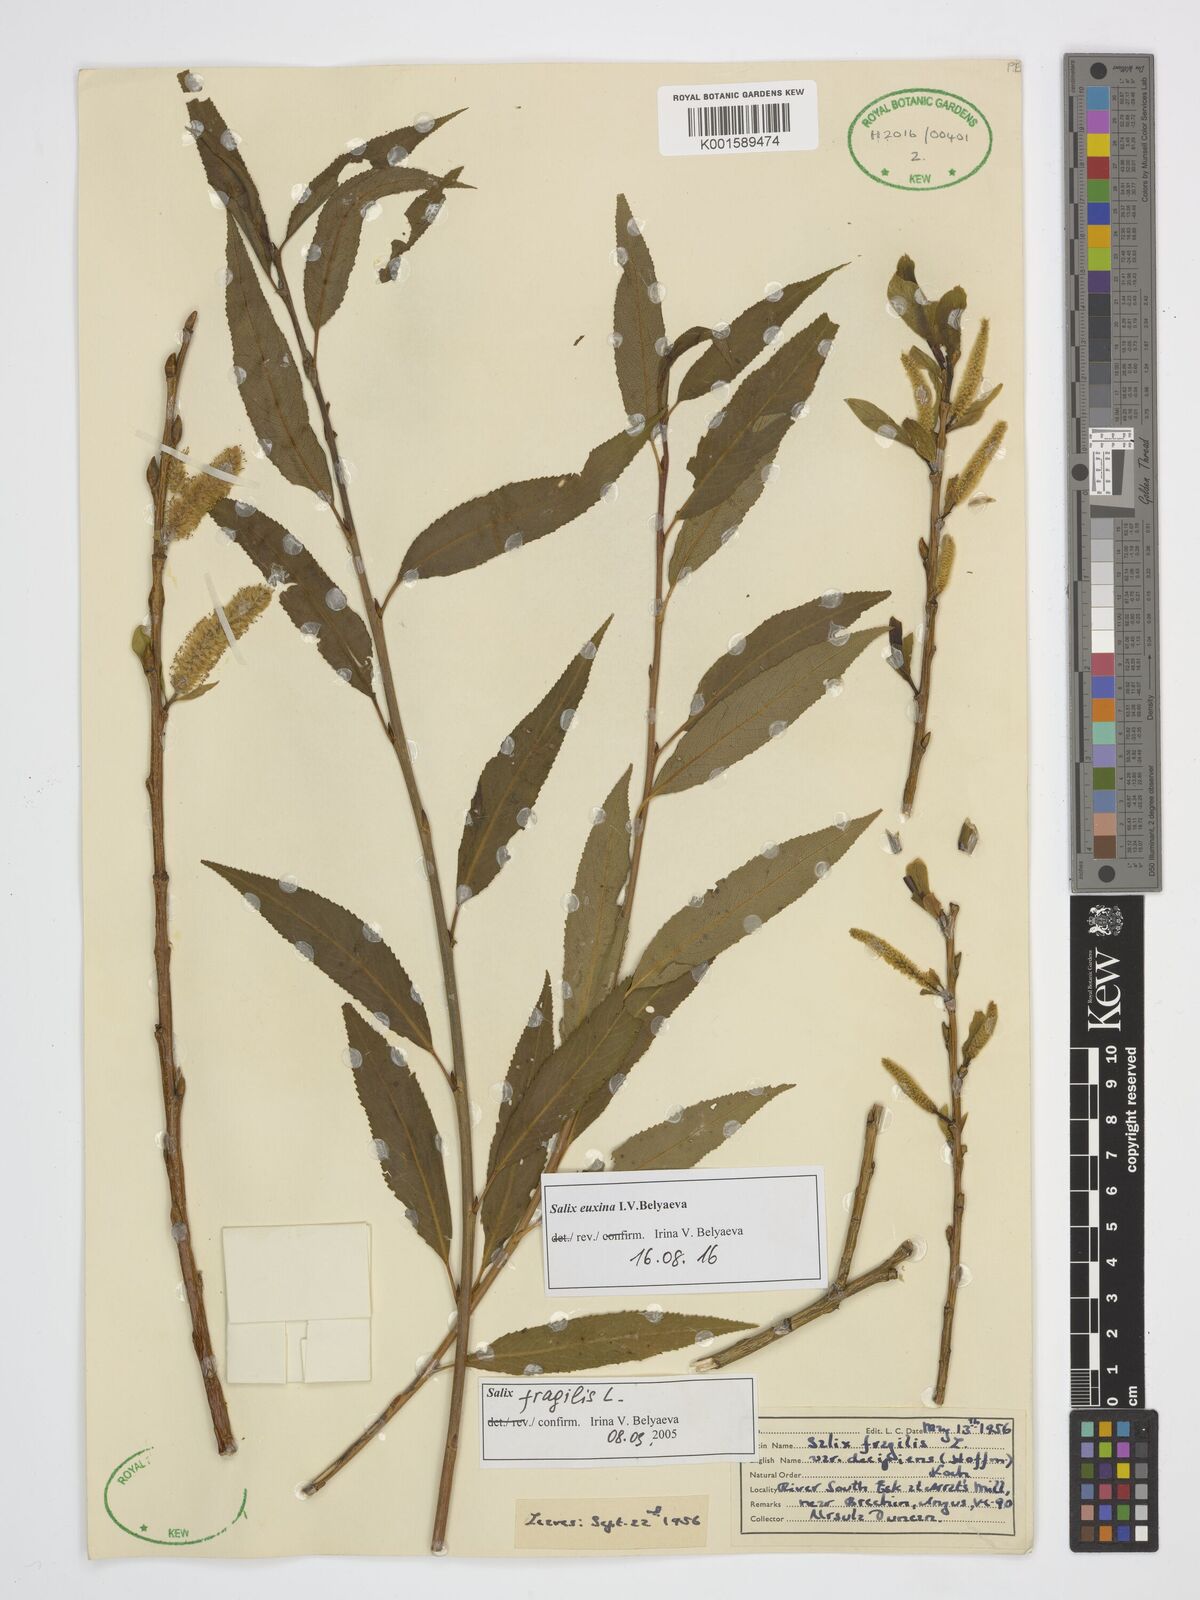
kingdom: Plantae
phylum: Tracheophyta
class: Magnoliopsida
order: Malpighiales
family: Salicaceae
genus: Salix
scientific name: Salix alba
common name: White willow
